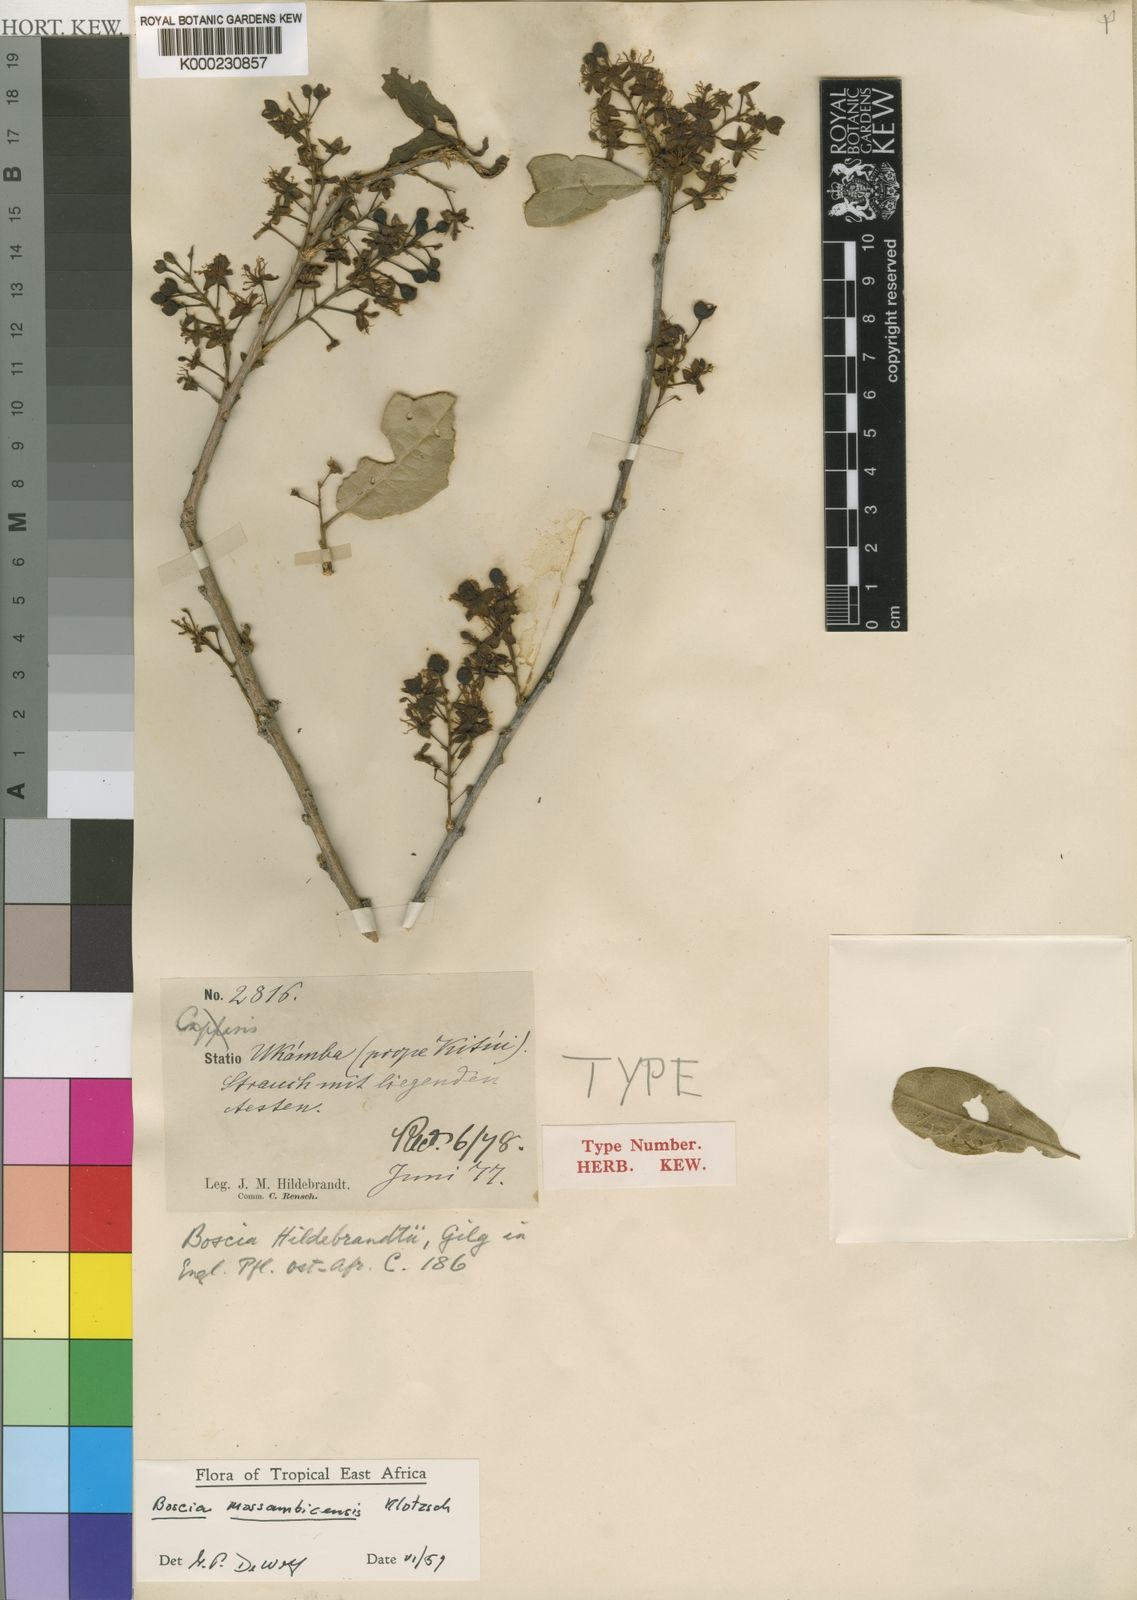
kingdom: Plantae
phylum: Tracheophyta
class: Magnoliopsida
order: Brassicales
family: Capparaceae
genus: Boscia
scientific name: Boscia mossambicensis
